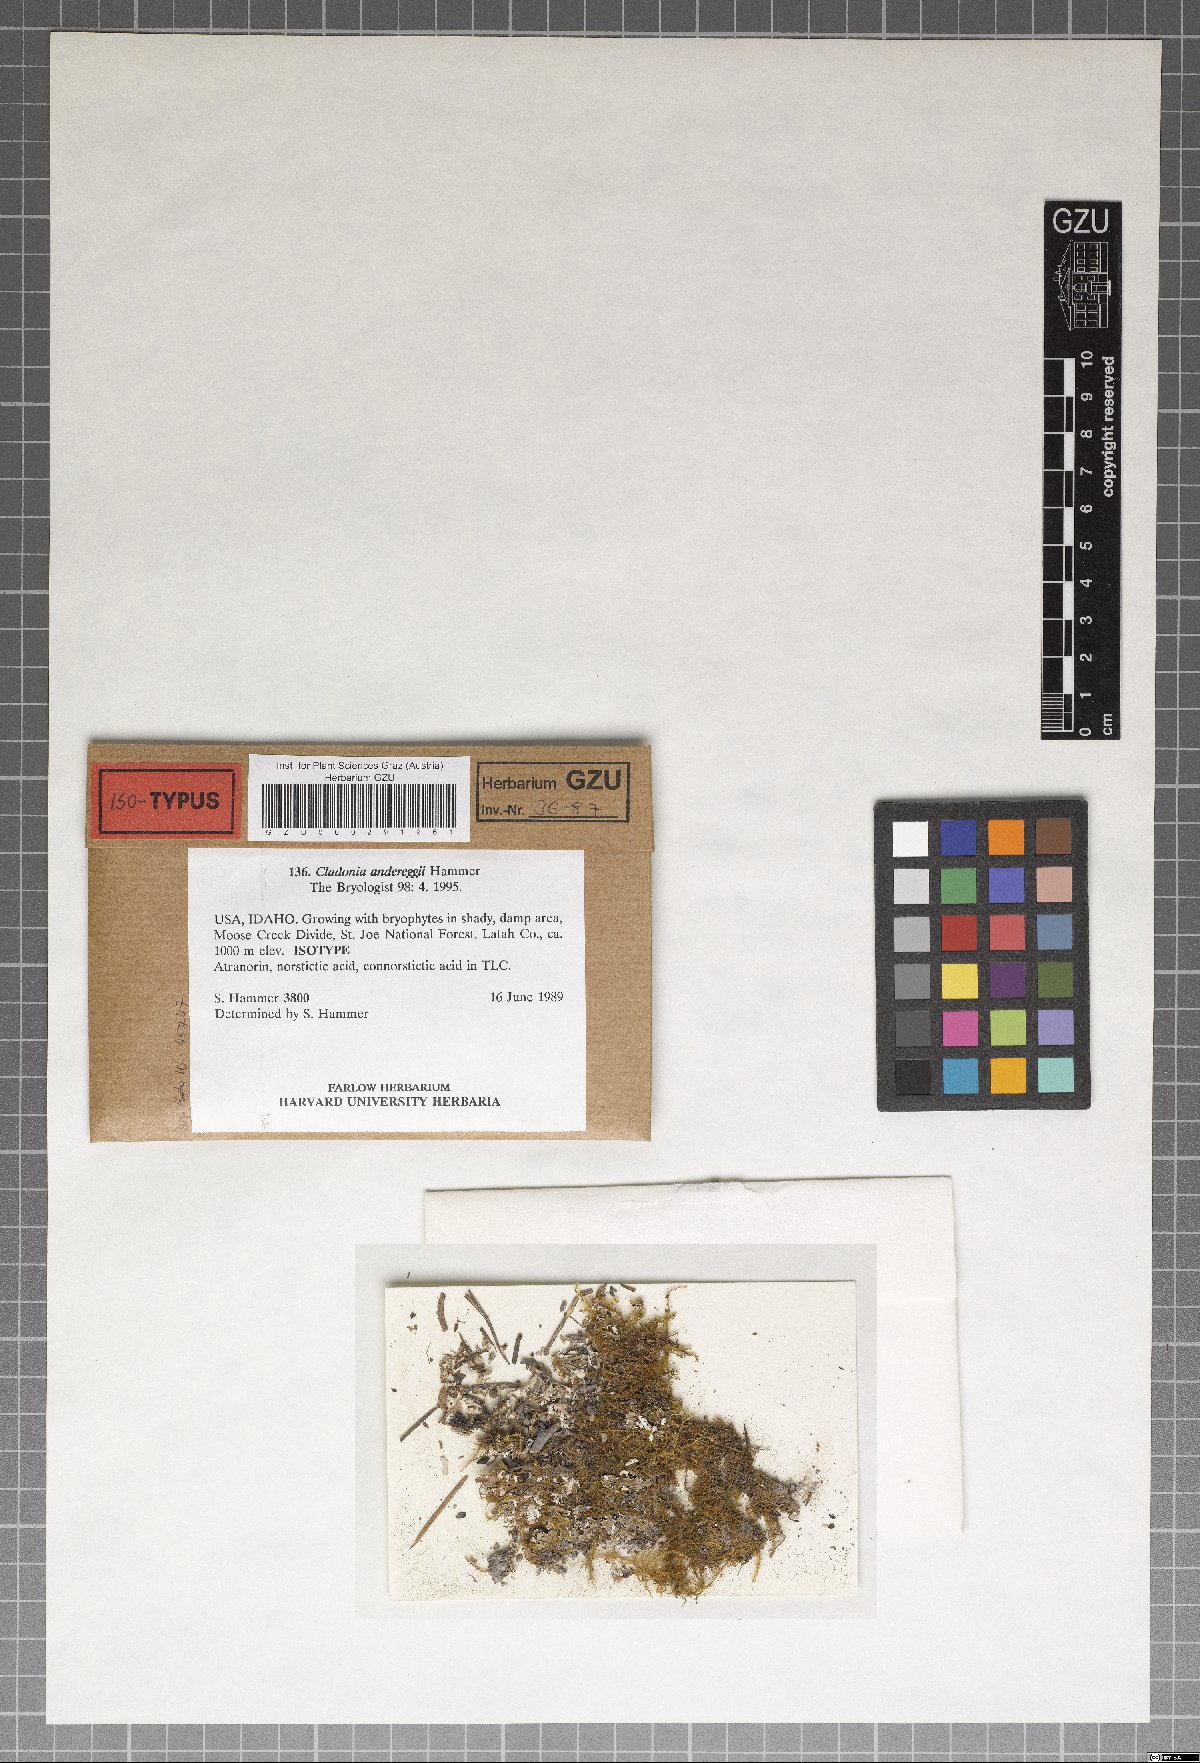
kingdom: Plantae
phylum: Marchantiophyta
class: Marchantiopsida
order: Marchantiales
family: Monocleaceae
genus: Monoclea
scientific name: Monoclea
